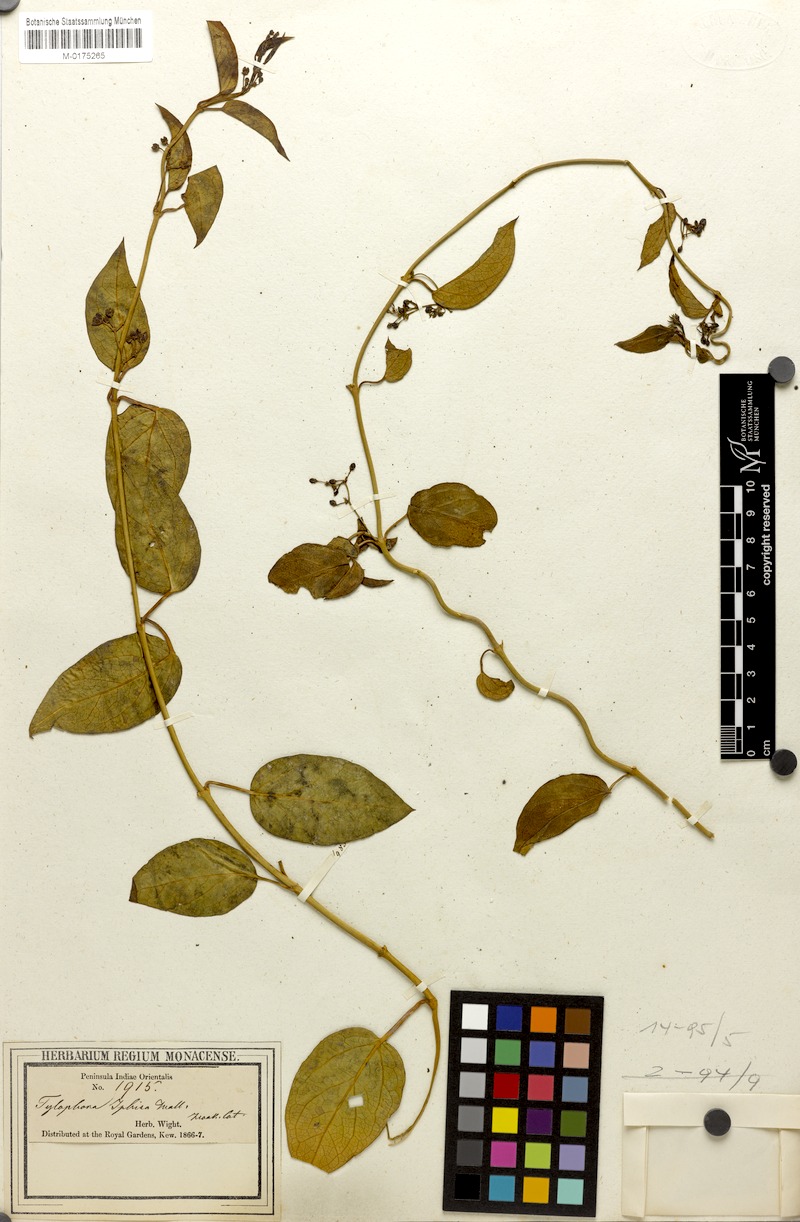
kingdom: Plantae
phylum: Tracheophyta
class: Magnoliopsida
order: Gentianales
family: Apocynaceae
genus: Vincetoxicum
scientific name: Vincetoxicum iphisia
